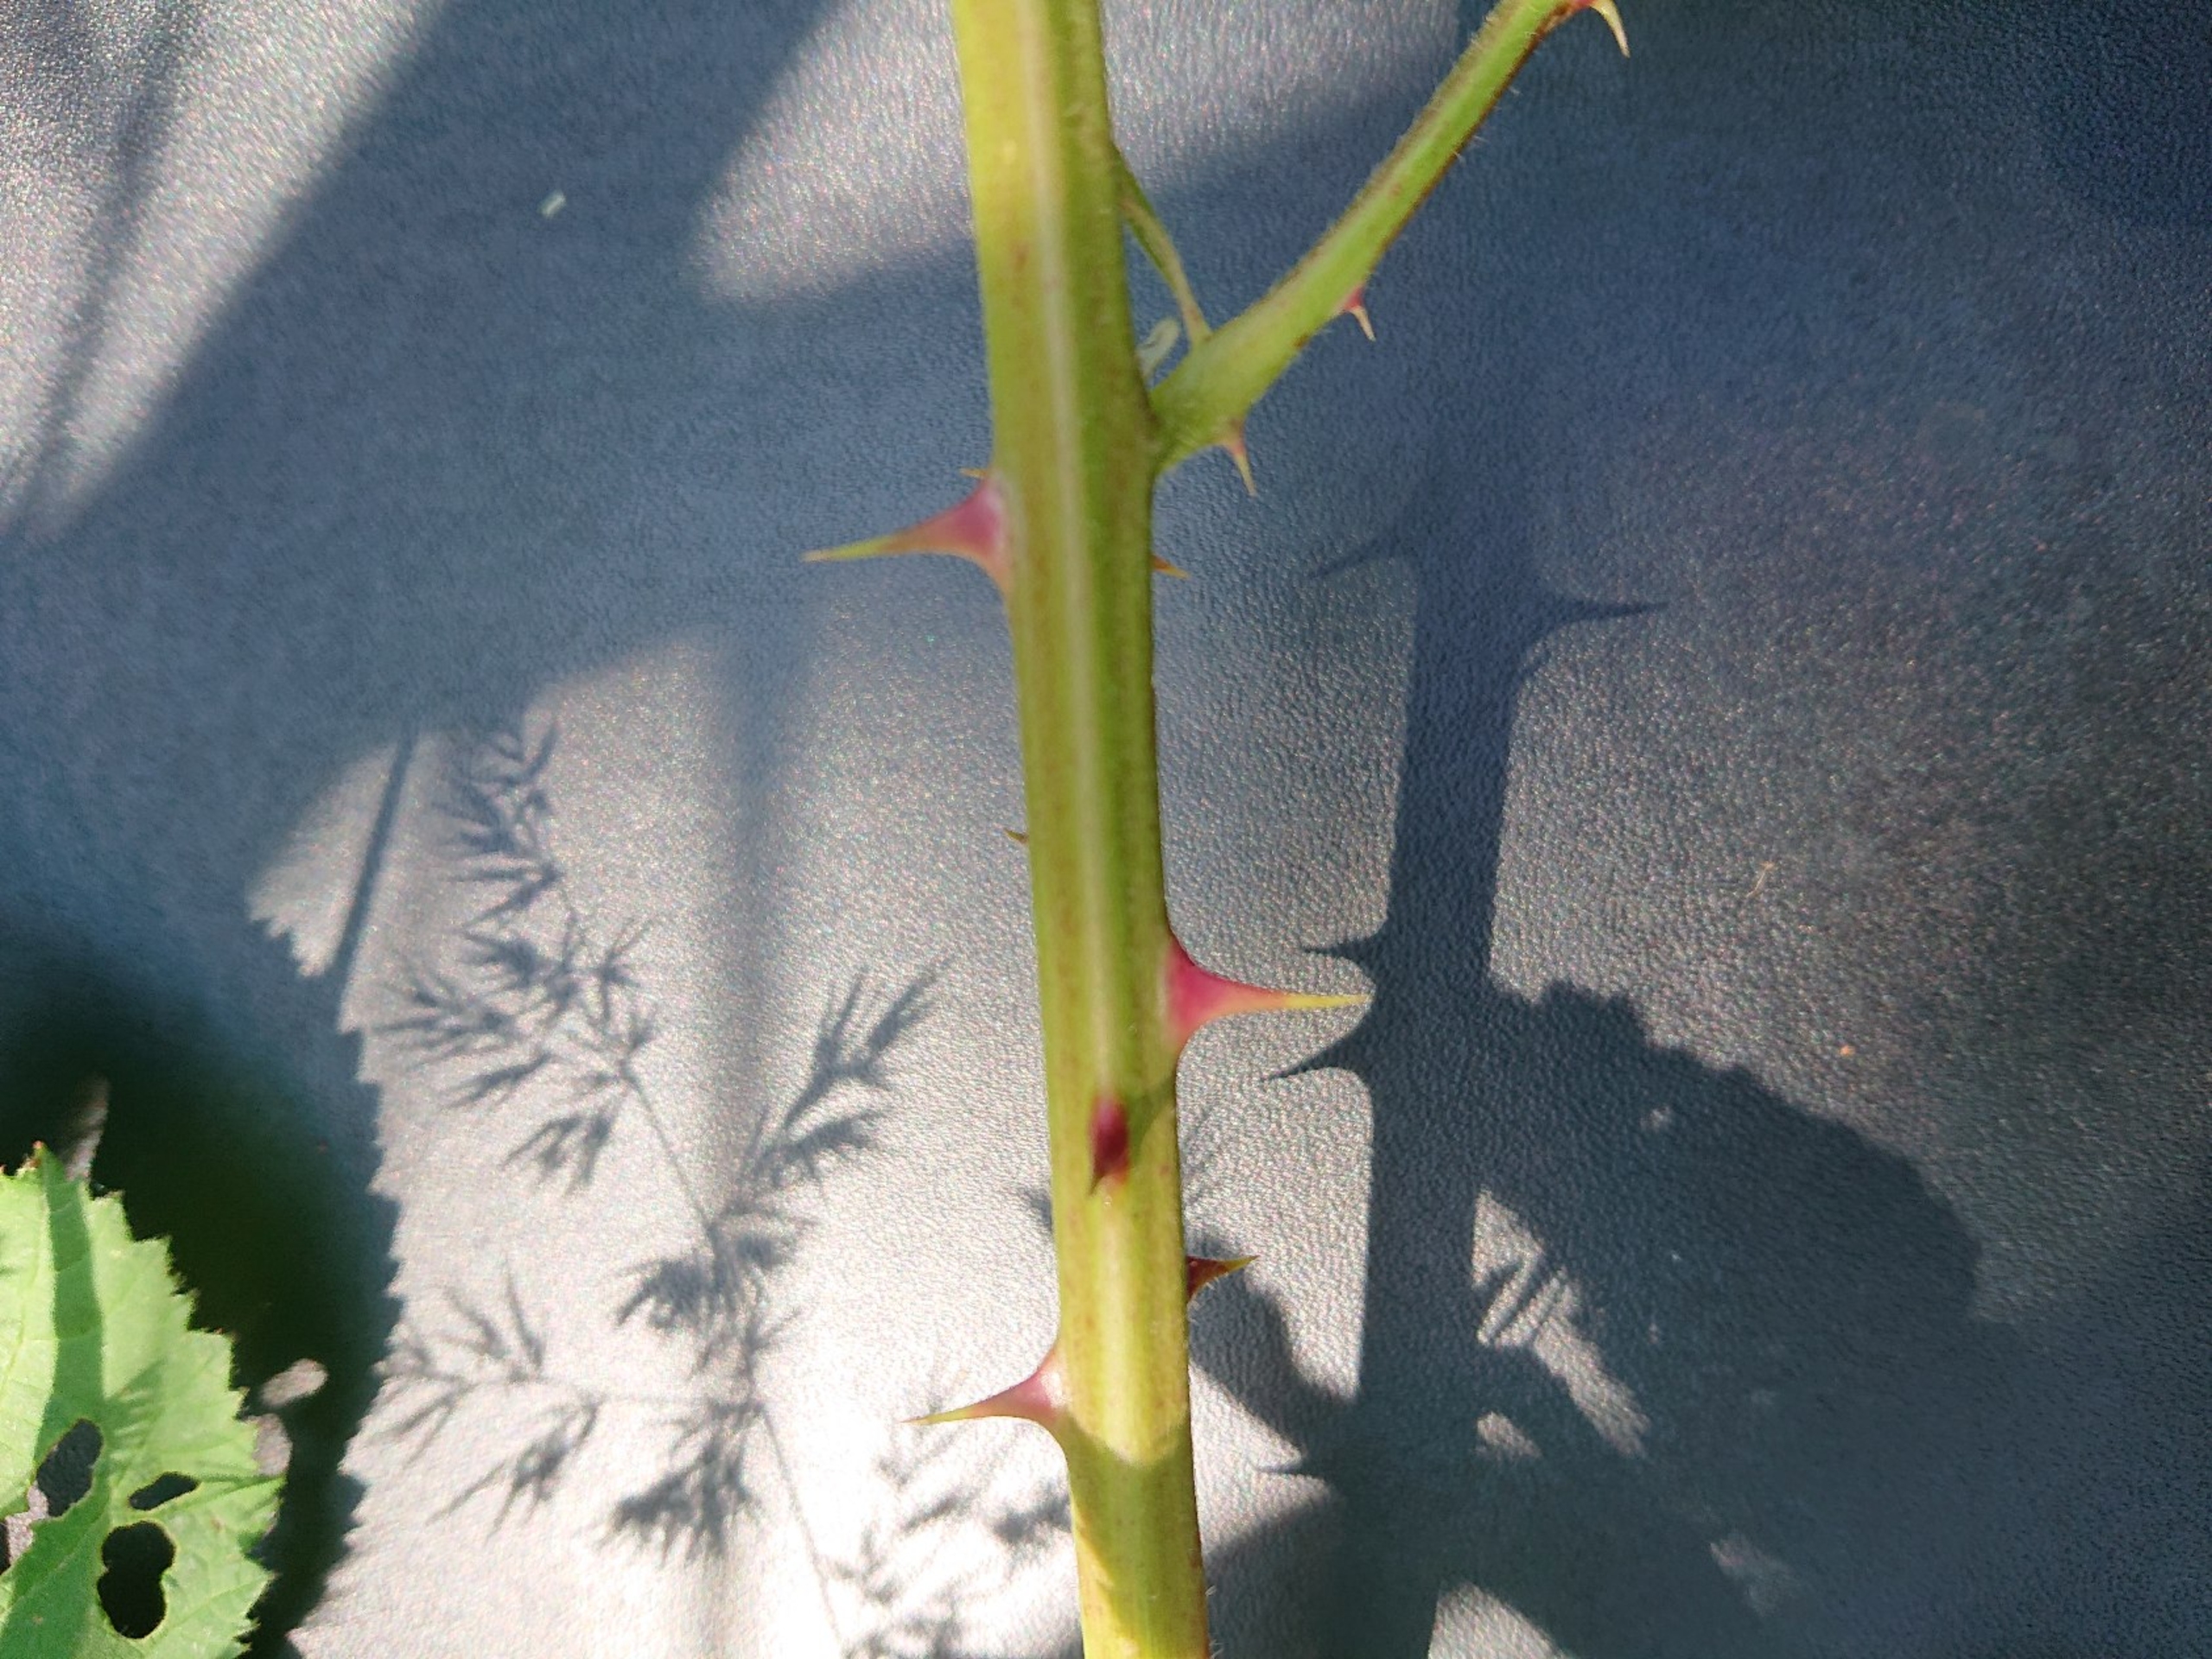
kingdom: Plantae
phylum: Tracheophyta
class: Magnoliopsida
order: Rosales
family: Rosaceae
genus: Rubus
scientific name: Rubus armeniacus
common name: Armensk brombær
